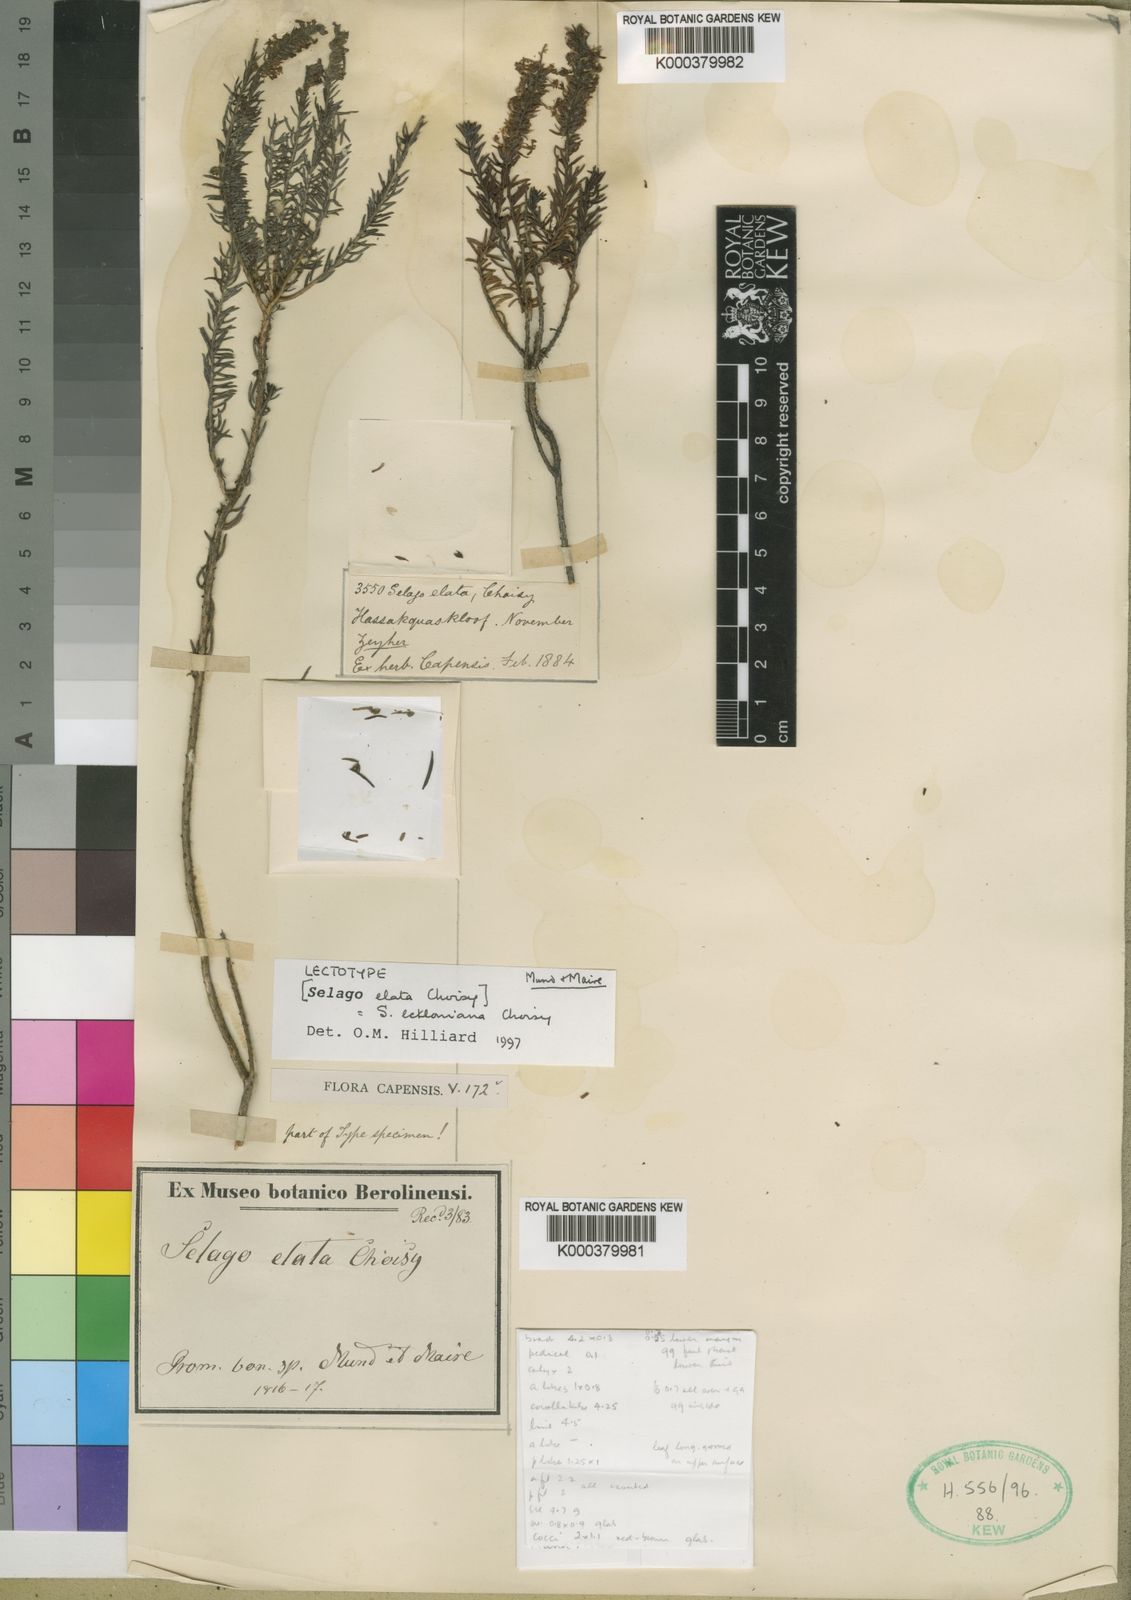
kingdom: Plantae
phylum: Tracheophyta
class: Magnoliopsida
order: Lamiales
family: Scrophulariaceae
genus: Selago
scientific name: Selago eckloniana
